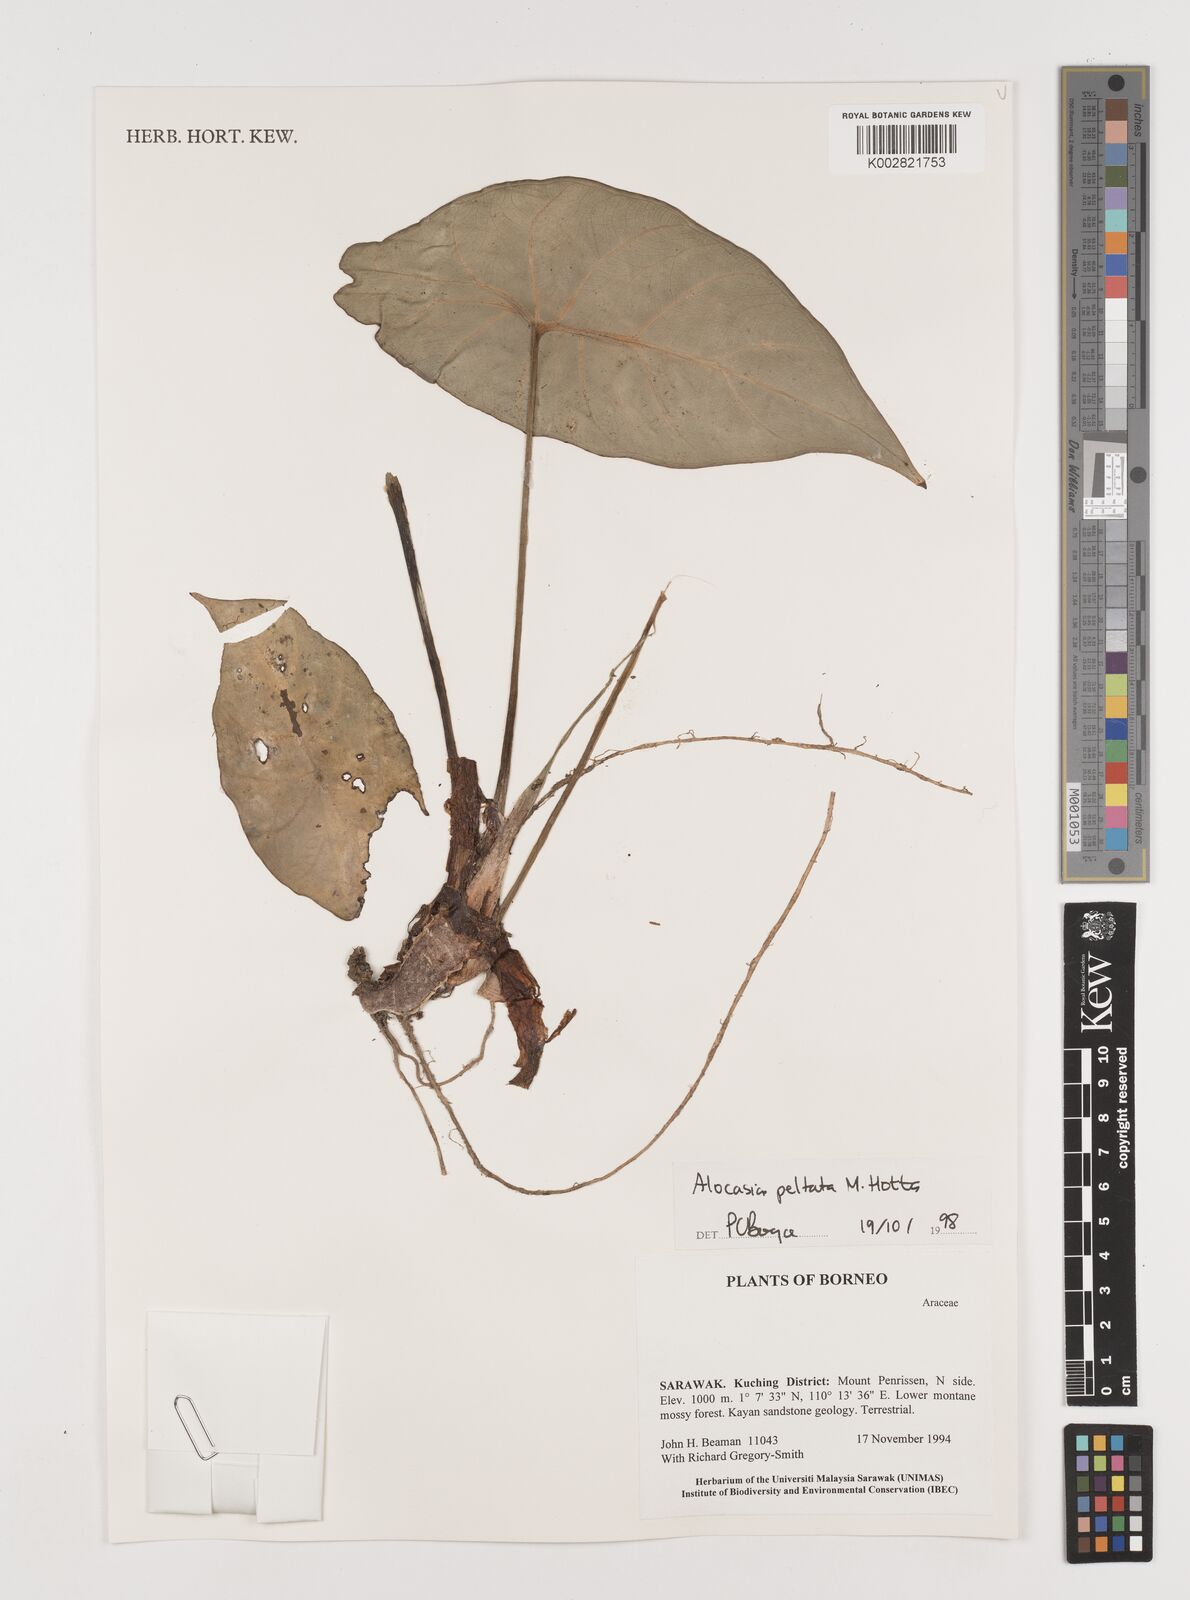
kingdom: Plantae
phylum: Tracheophyta
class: Liliopsida
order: Alismatales
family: Araceae
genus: Alocasia
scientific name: Alocasia peltata
